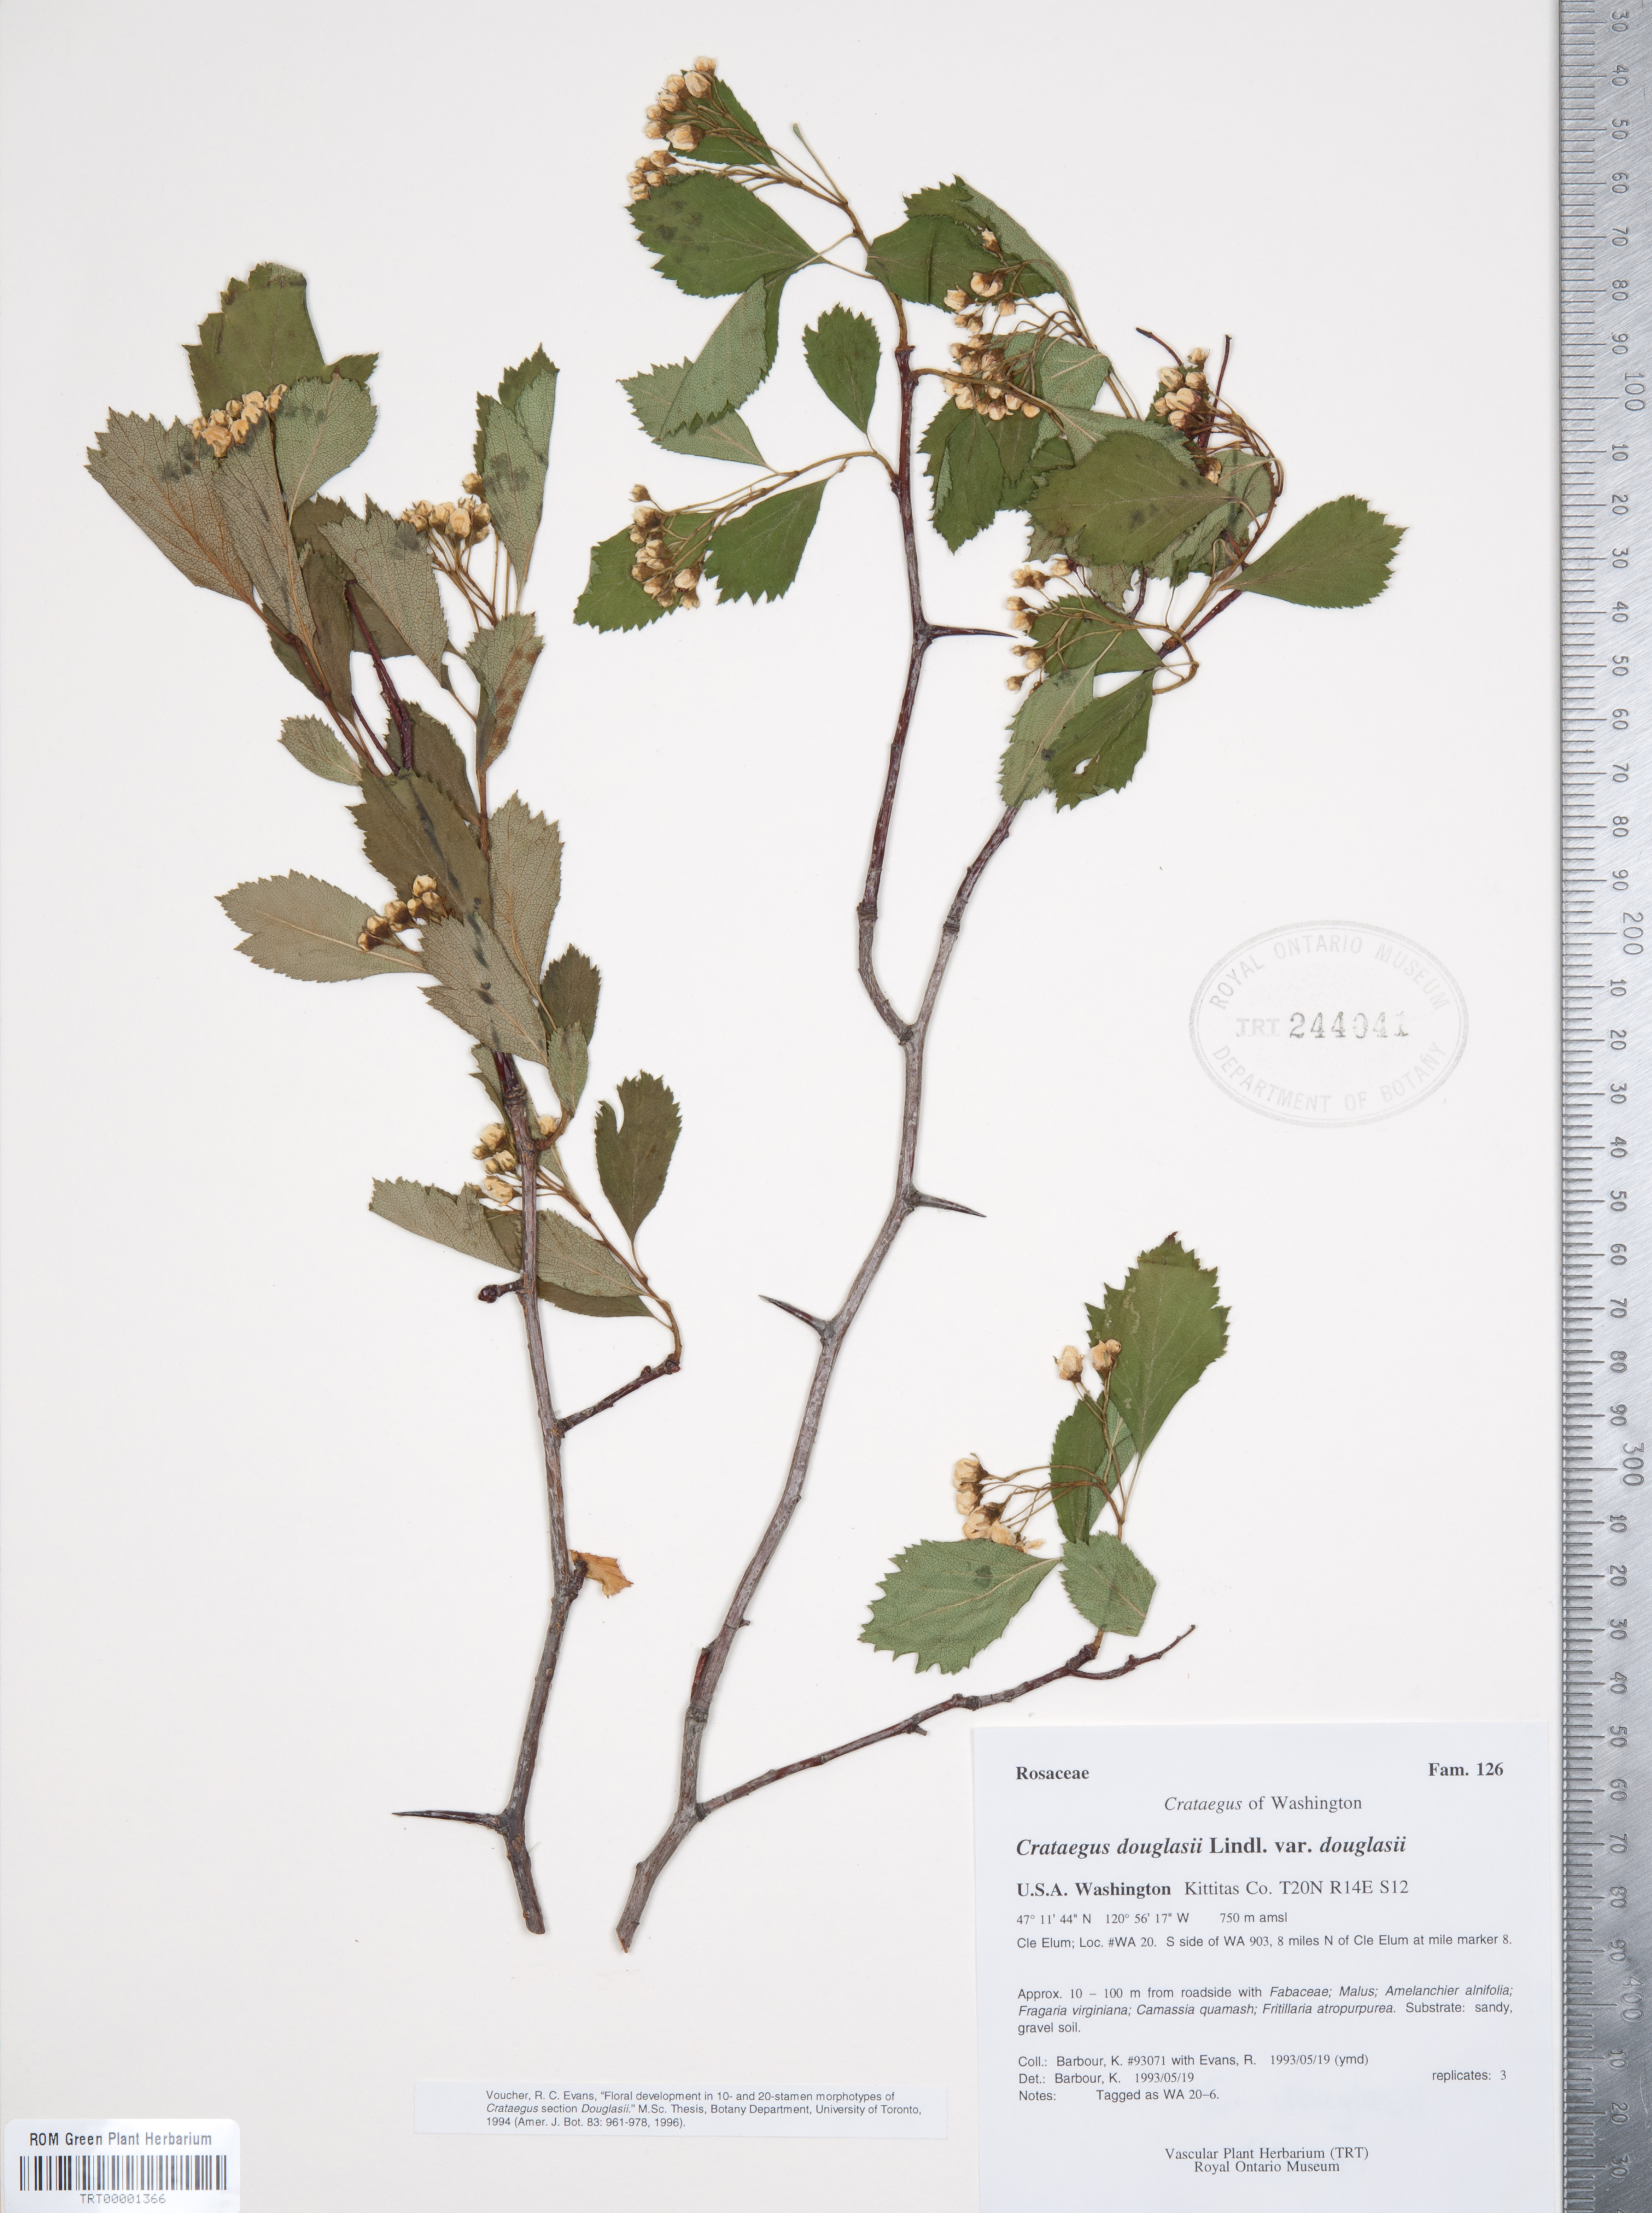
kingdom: Plantae
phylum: Tracheophyta
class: Magnoliopsida
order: Rosales
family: Rosaceae
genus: Crataegus
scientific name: Crataegus douglasii
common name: Black hawthorn
